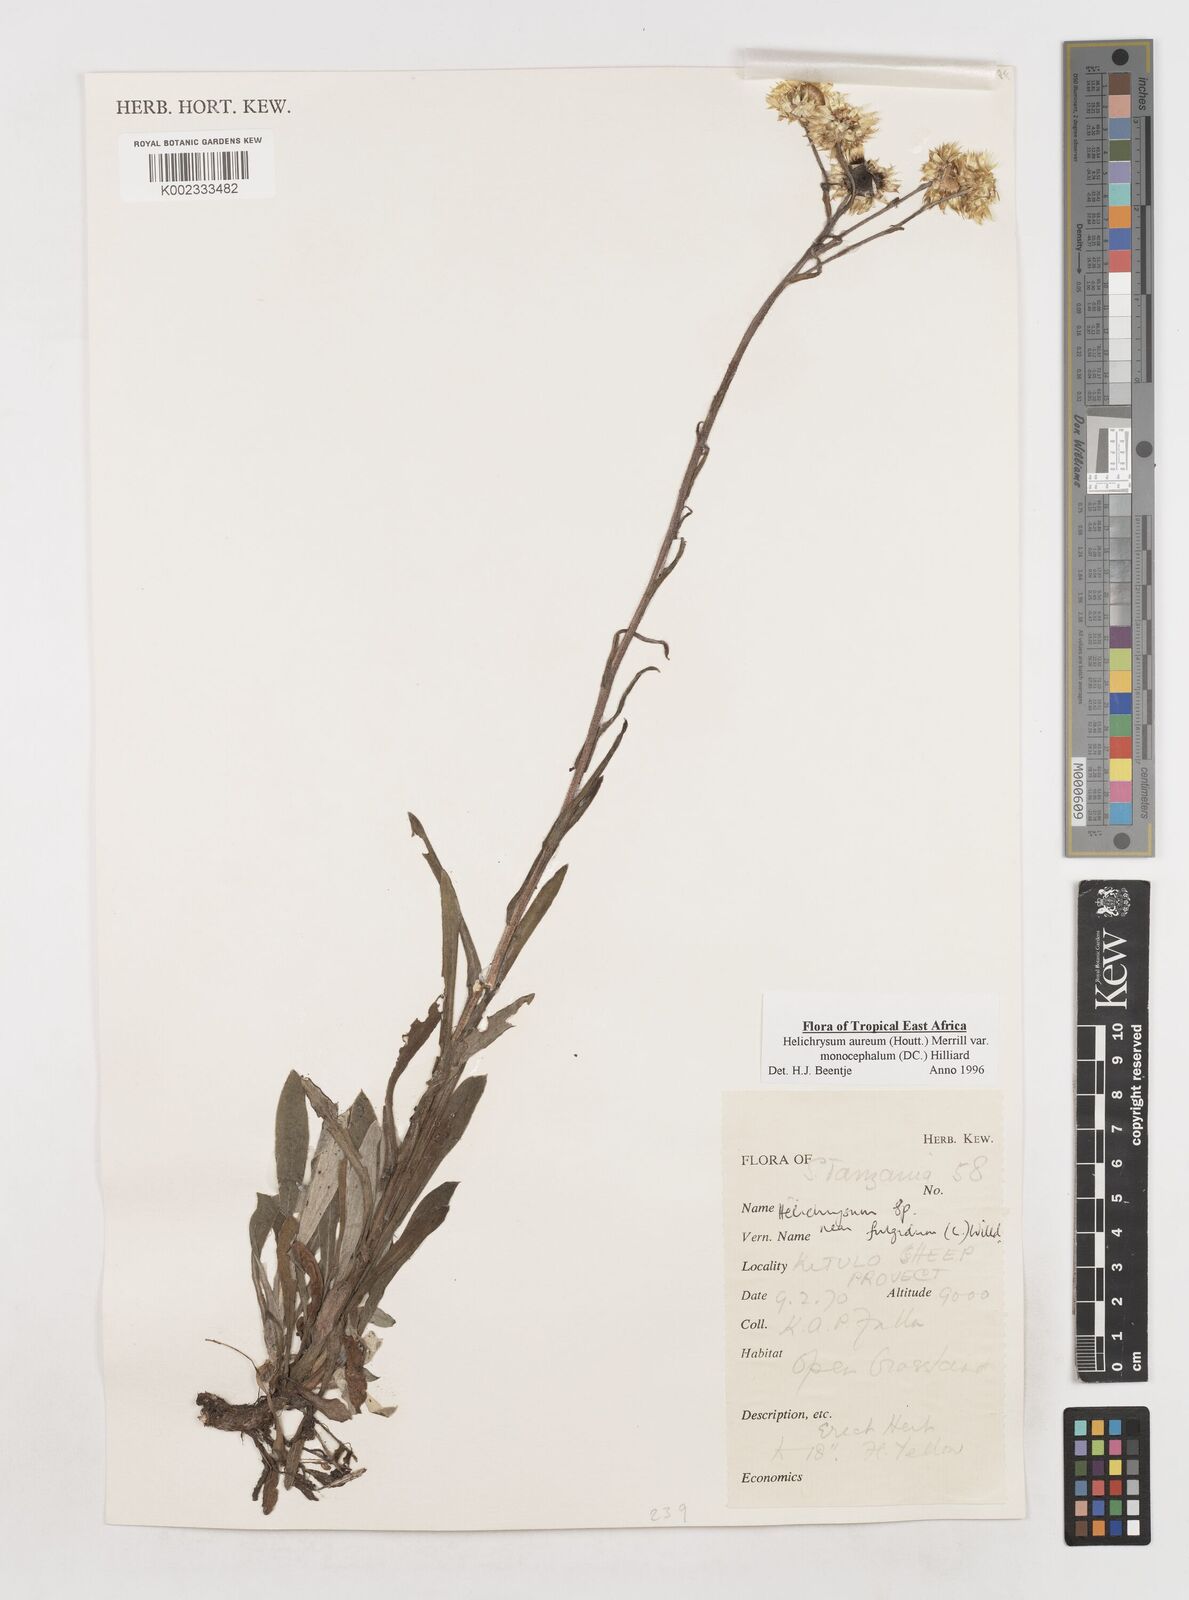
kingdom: Plantae
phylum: Tracheophyta
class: Magnoliopsida
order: Asterales
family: Asteraceae
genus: Helichrysum
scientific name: Helichrysum aureum
